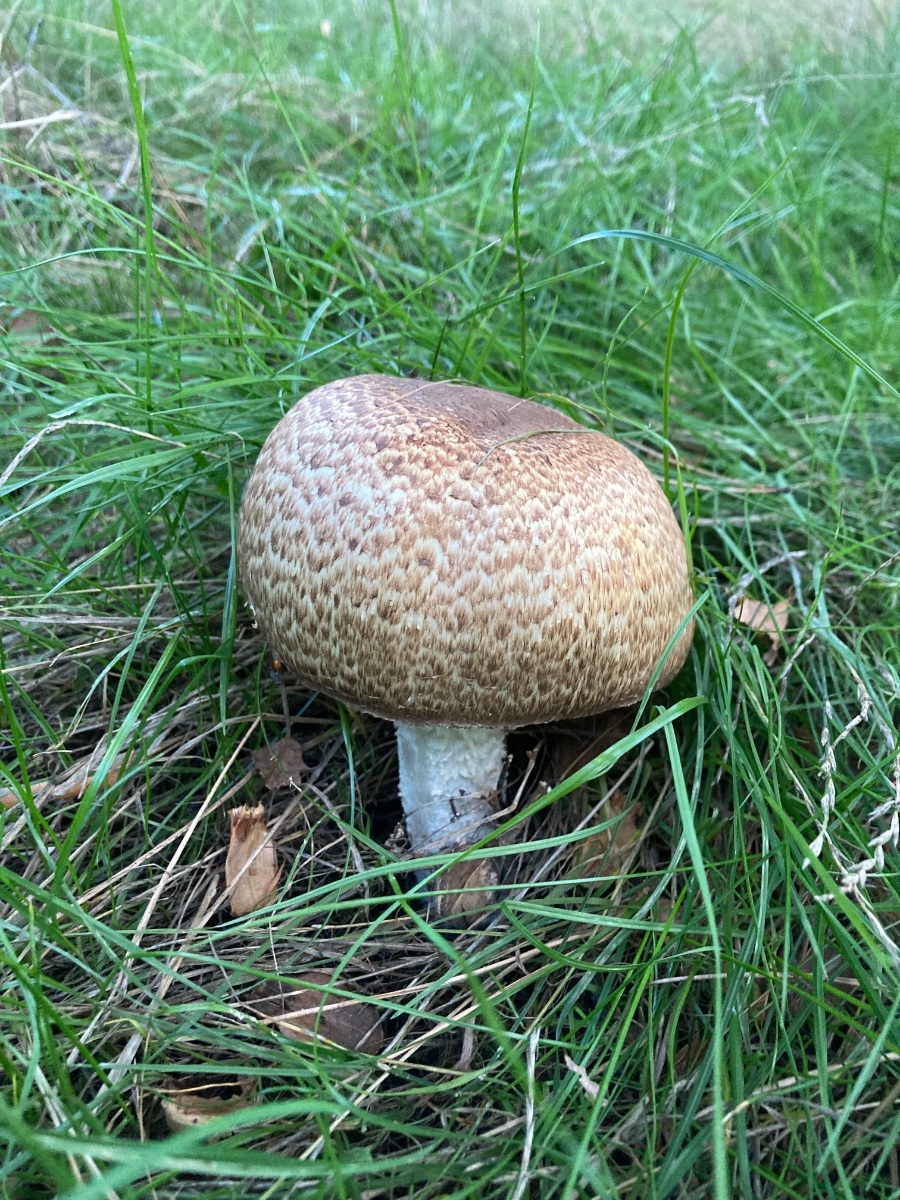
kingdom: Fungi
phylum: Basidiomycota
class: Agaricomycetes
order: Agaricales
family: Agaricaceae
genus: Agaricus
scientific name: Agaricus augustus
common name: prægtig champignon
